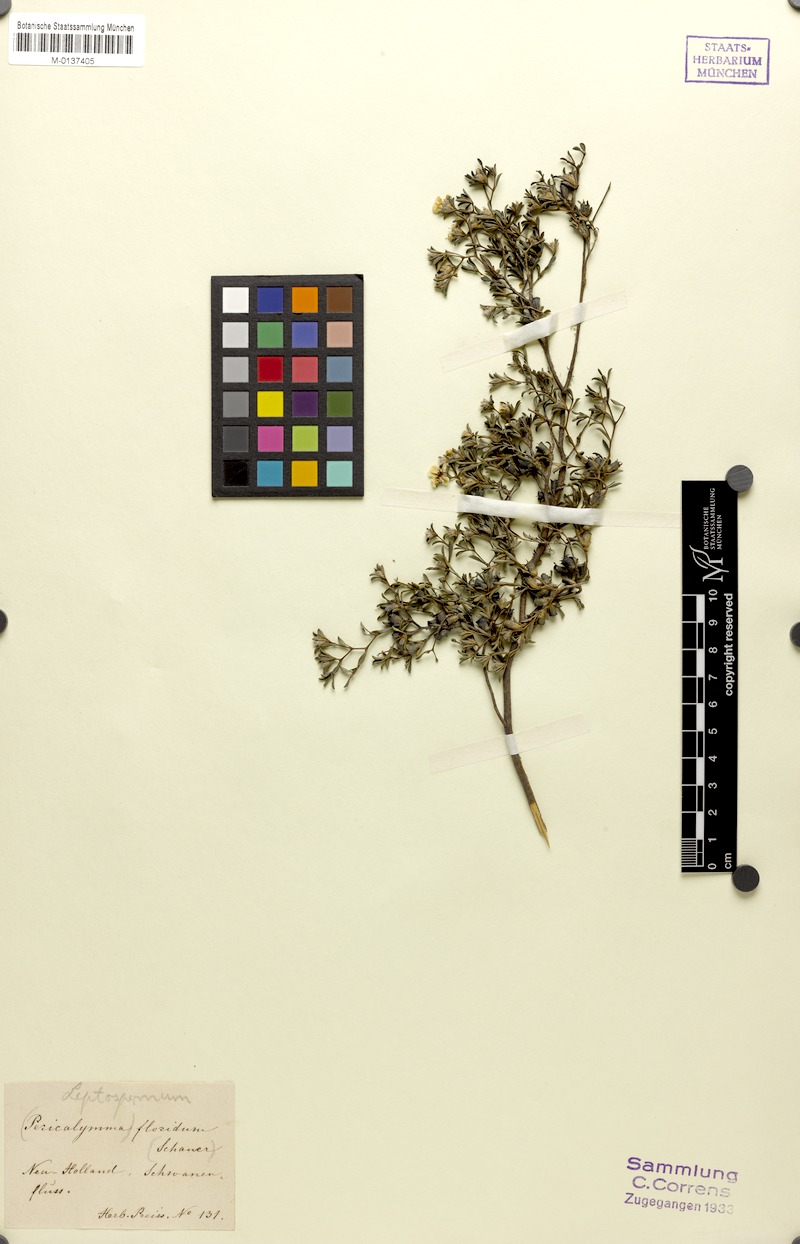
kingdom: Plantae
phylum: Tracheophyta
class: Magnoliopsida
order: Myrtales
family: Myrtaceae
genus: Pericalymma
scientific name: Pericalymma ellipticum
